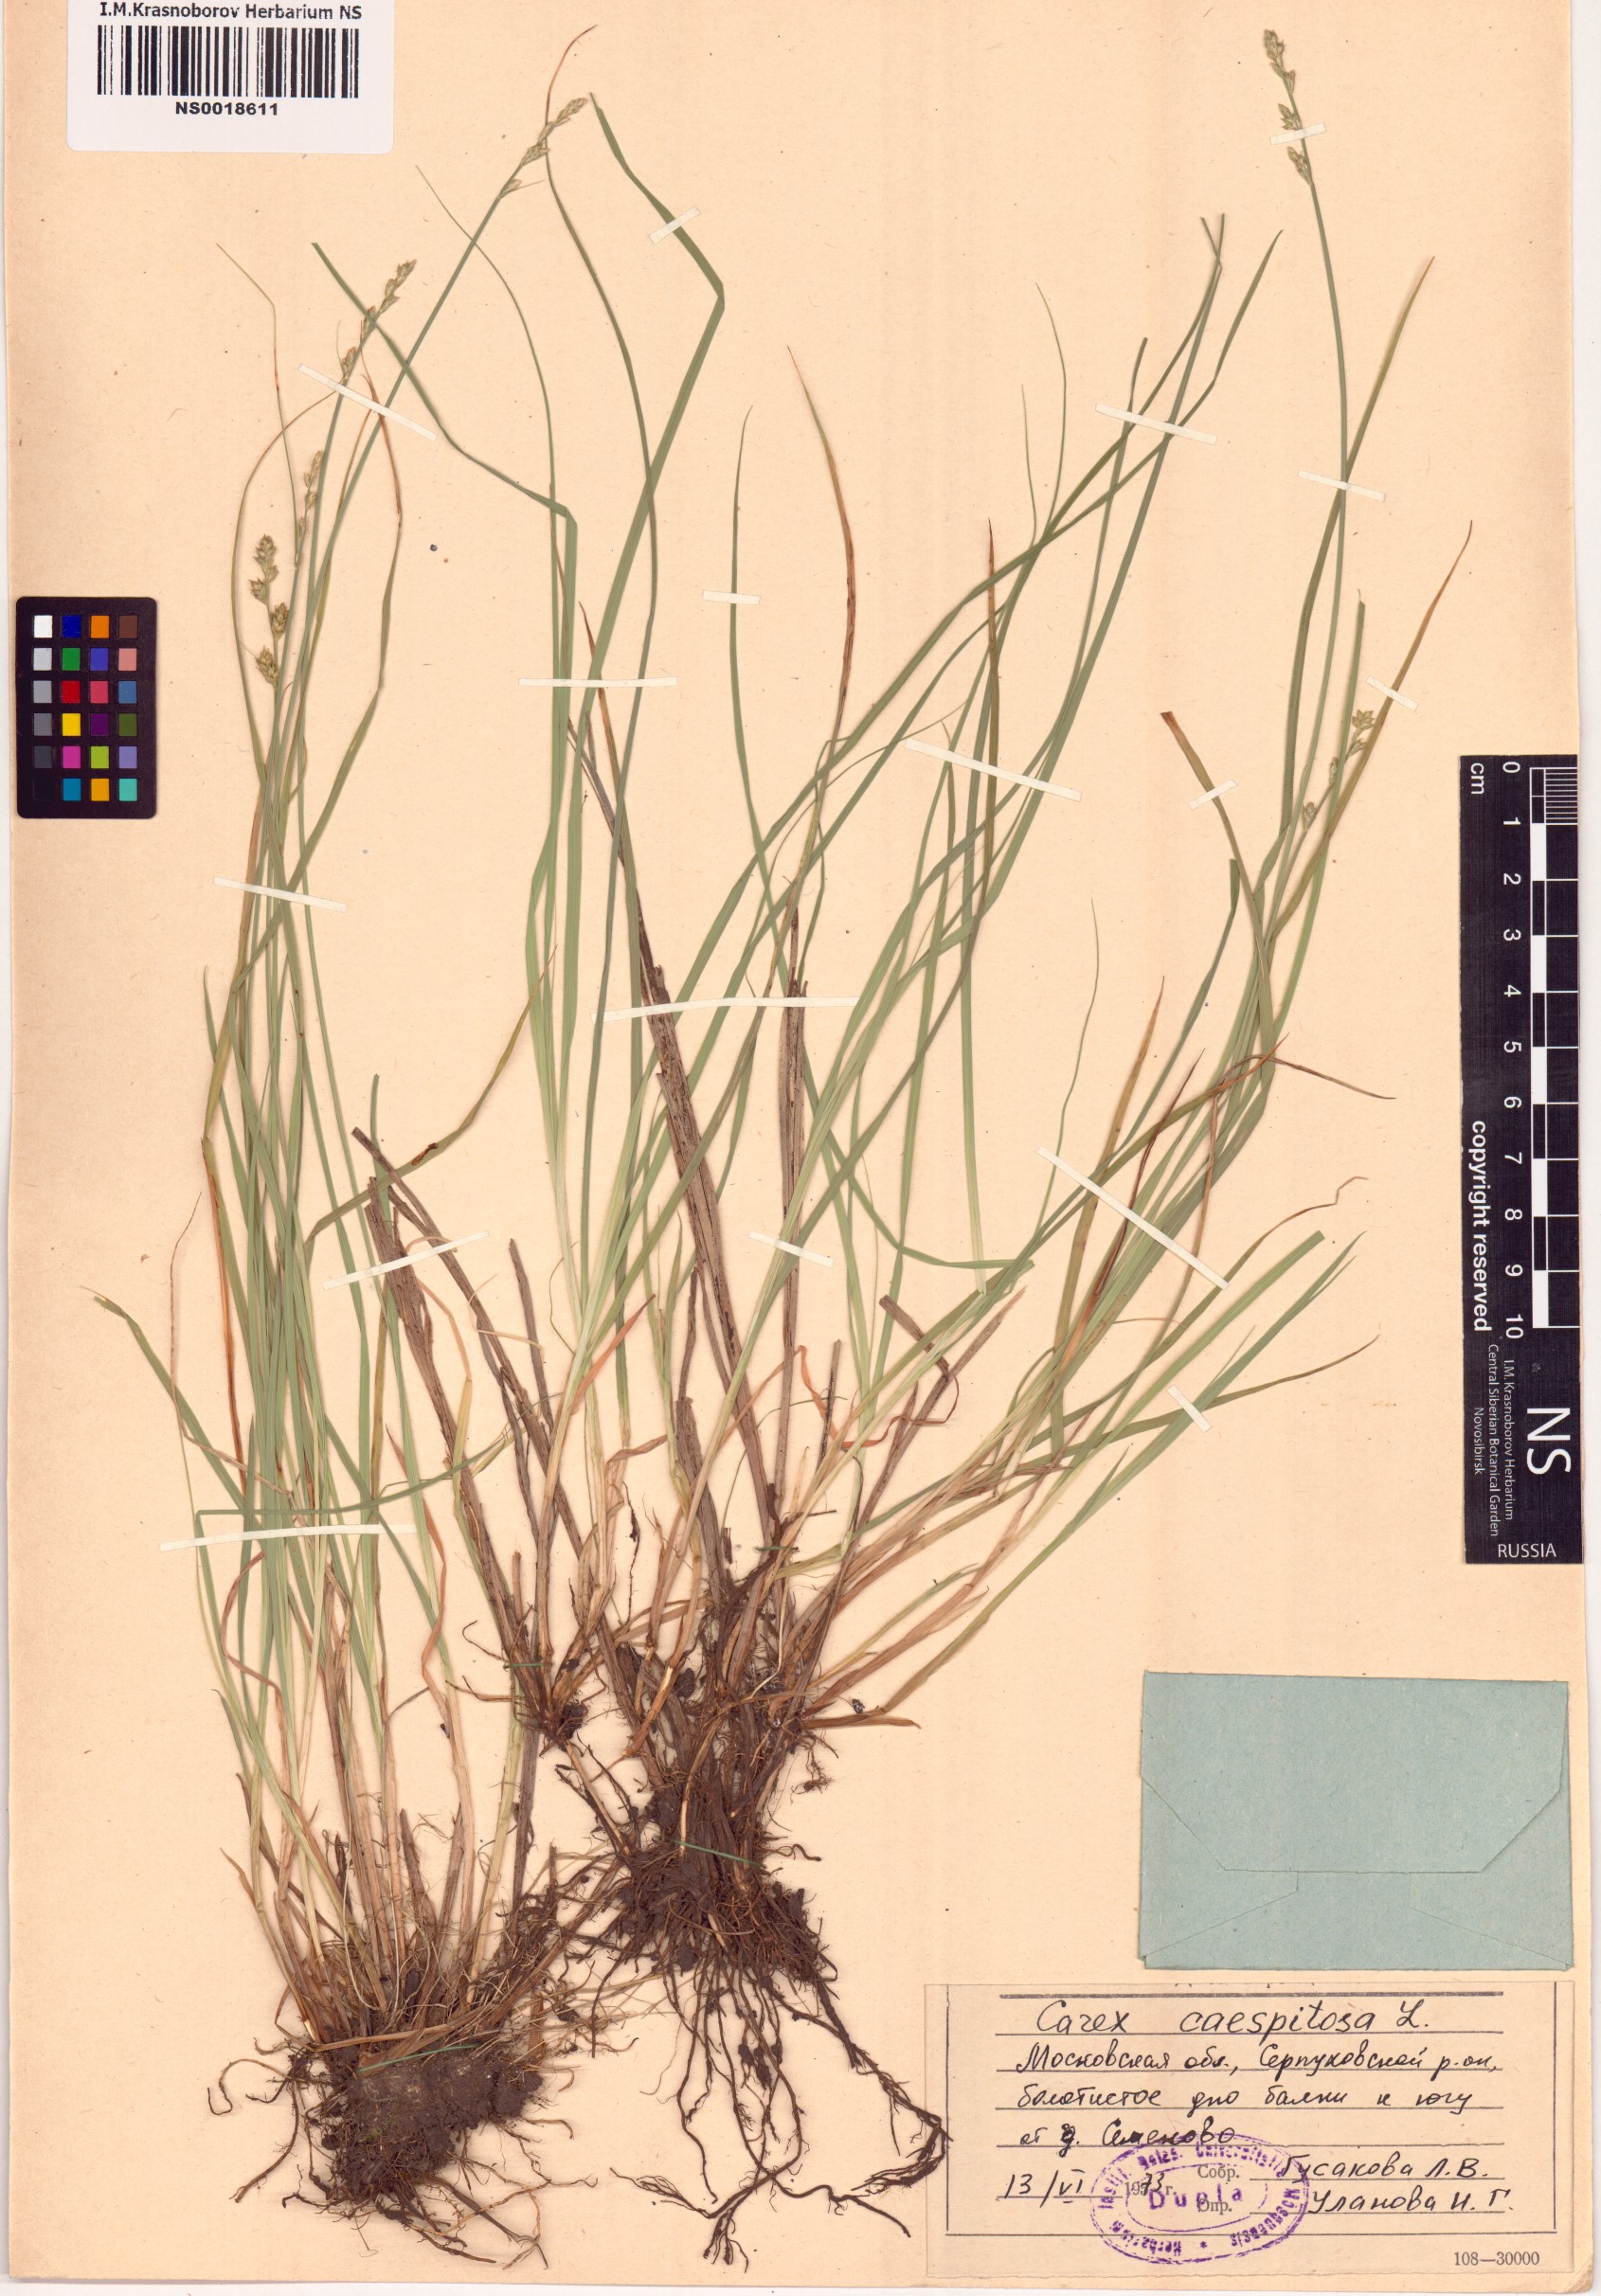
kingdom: Plantae
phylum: Tracheophyta
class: Liliopsida
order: Poales
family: Cyperaceae
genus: Carex
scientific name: Carex cespitosa
